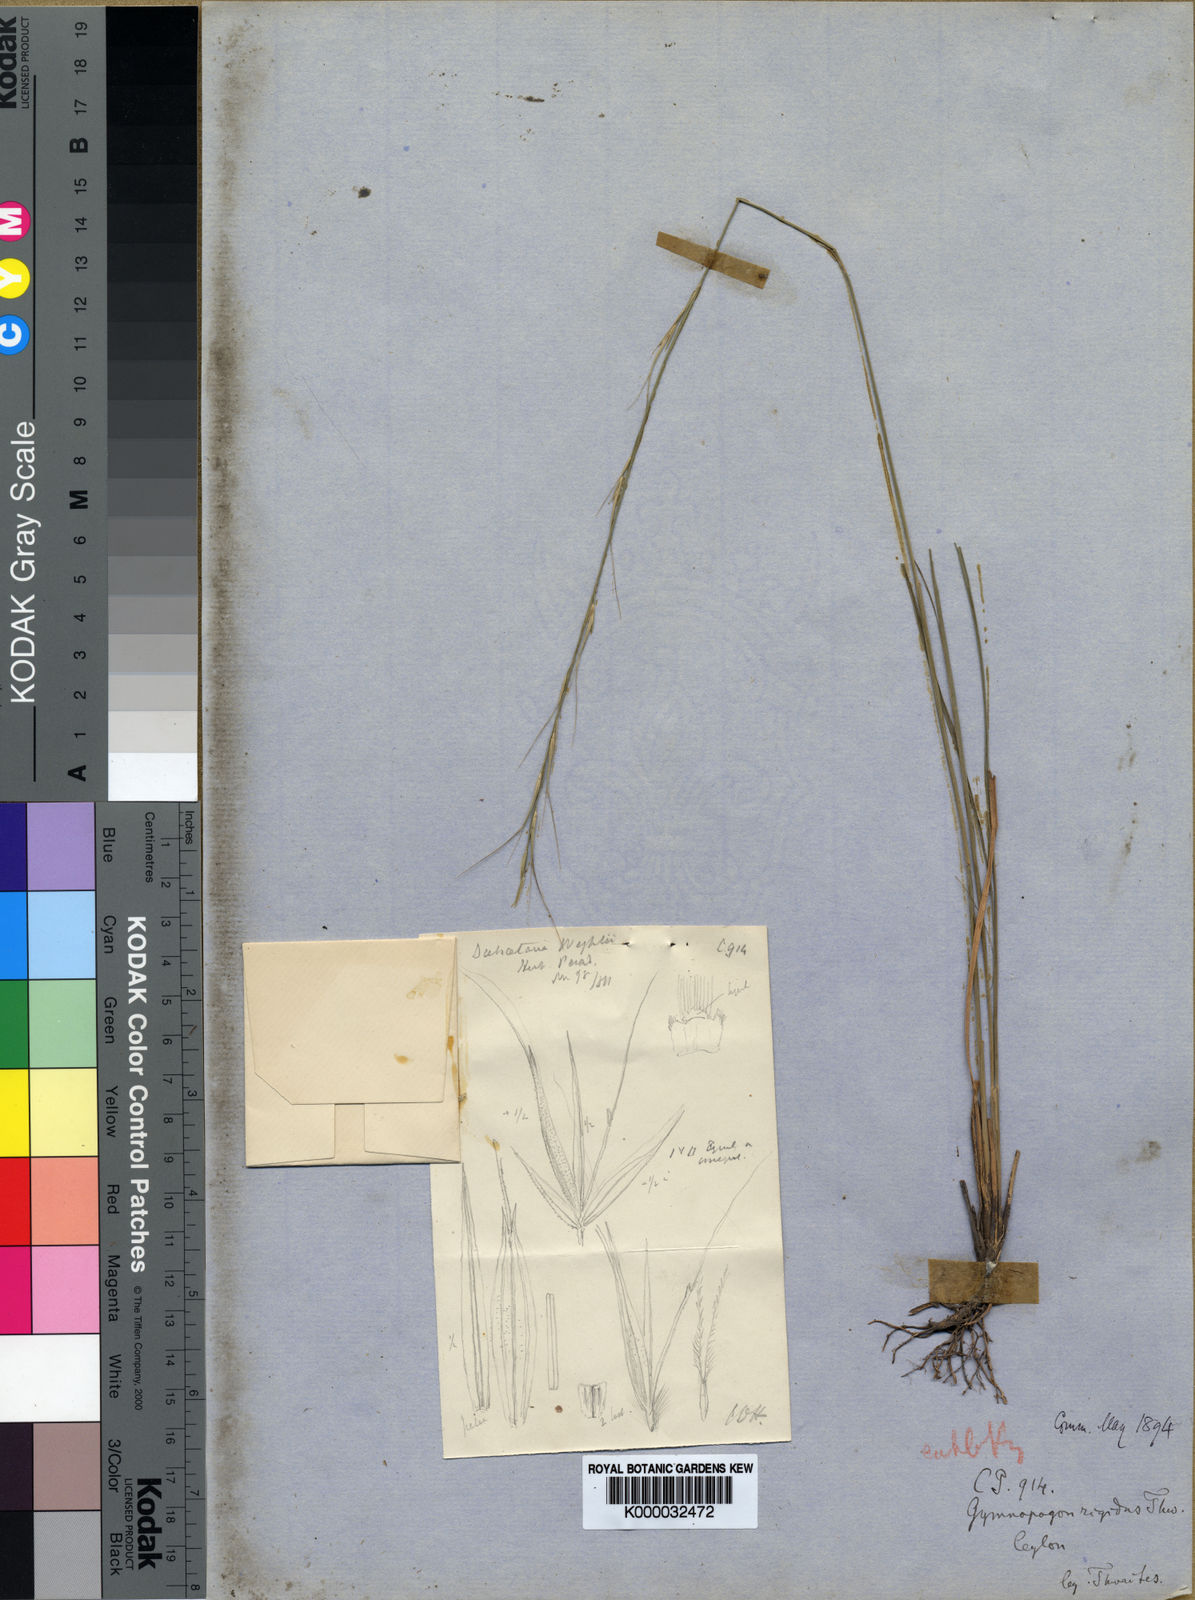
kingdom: Plantae
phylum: Tracheophyta
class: Liliopsida
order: Poales
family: Poaceae
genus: Dichaetaria
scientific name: Dichaetaria wightii
